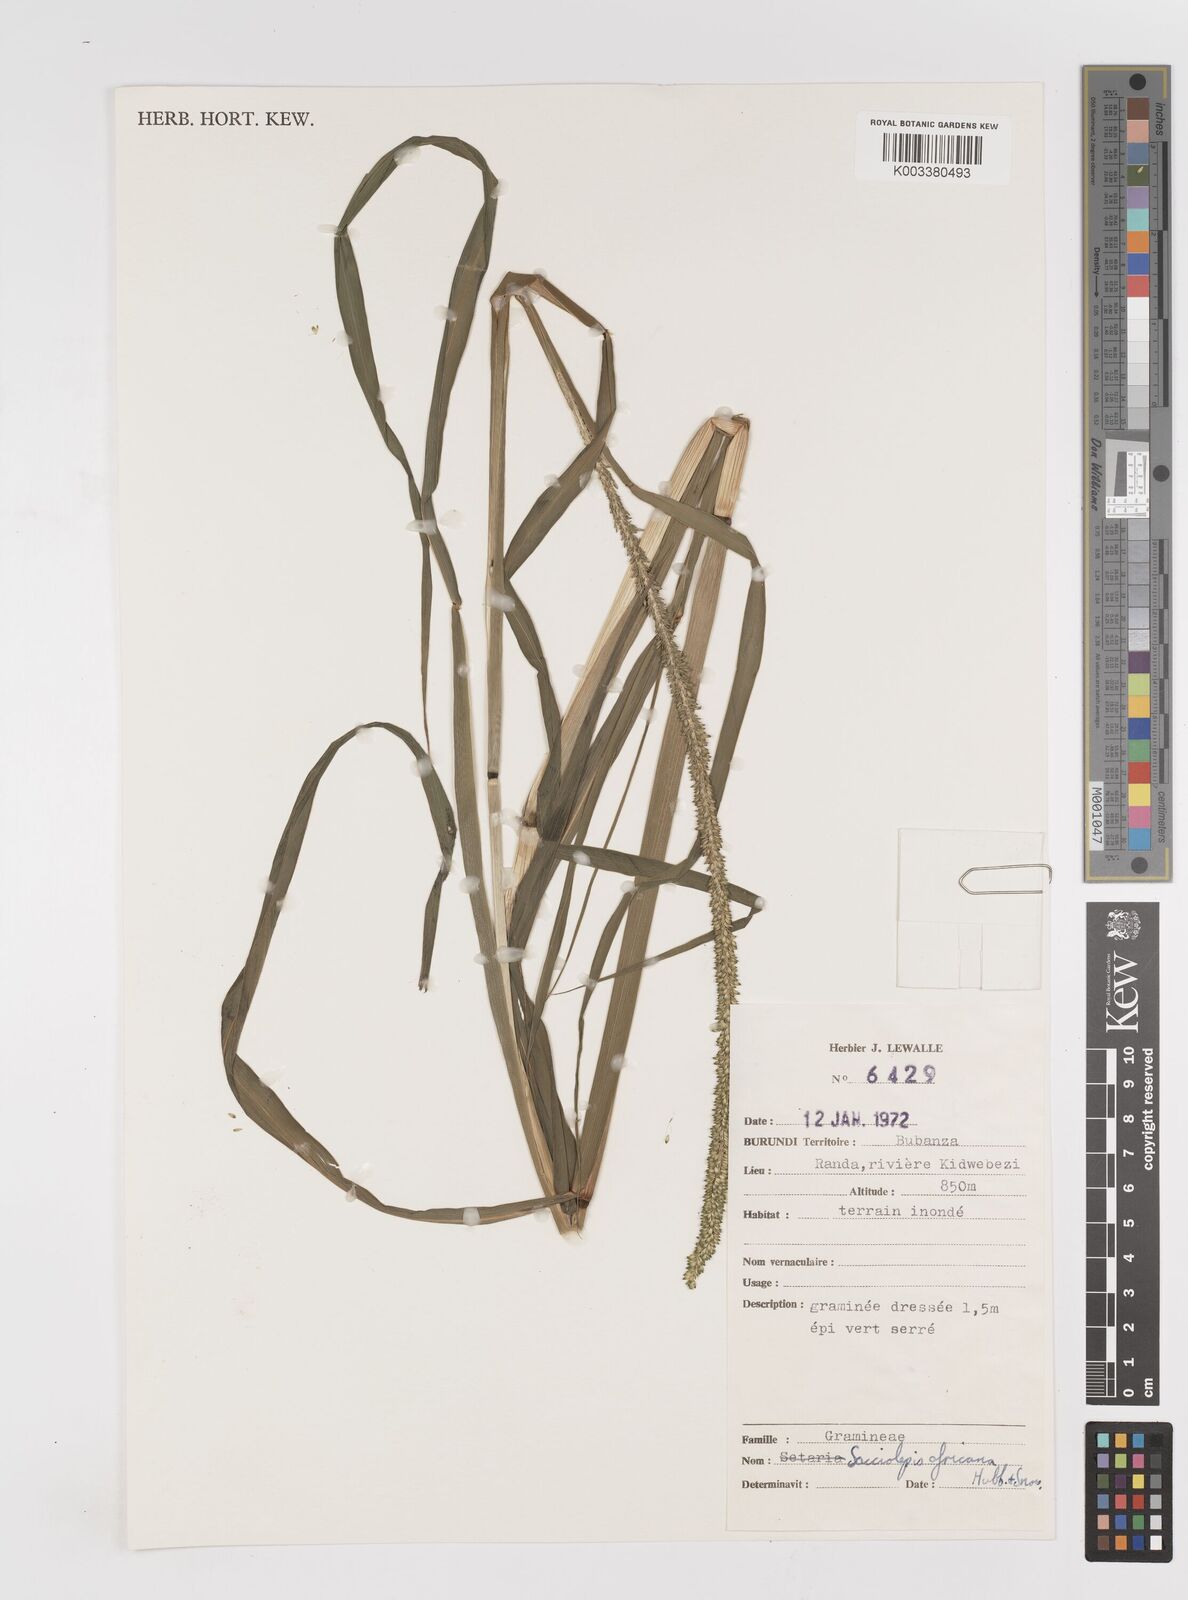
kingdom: Plantae
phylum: Tracheophyta
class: Liliopsida
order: Poales
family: Poaceae
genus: Sacciolepis
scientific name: Sacciolepis africana
